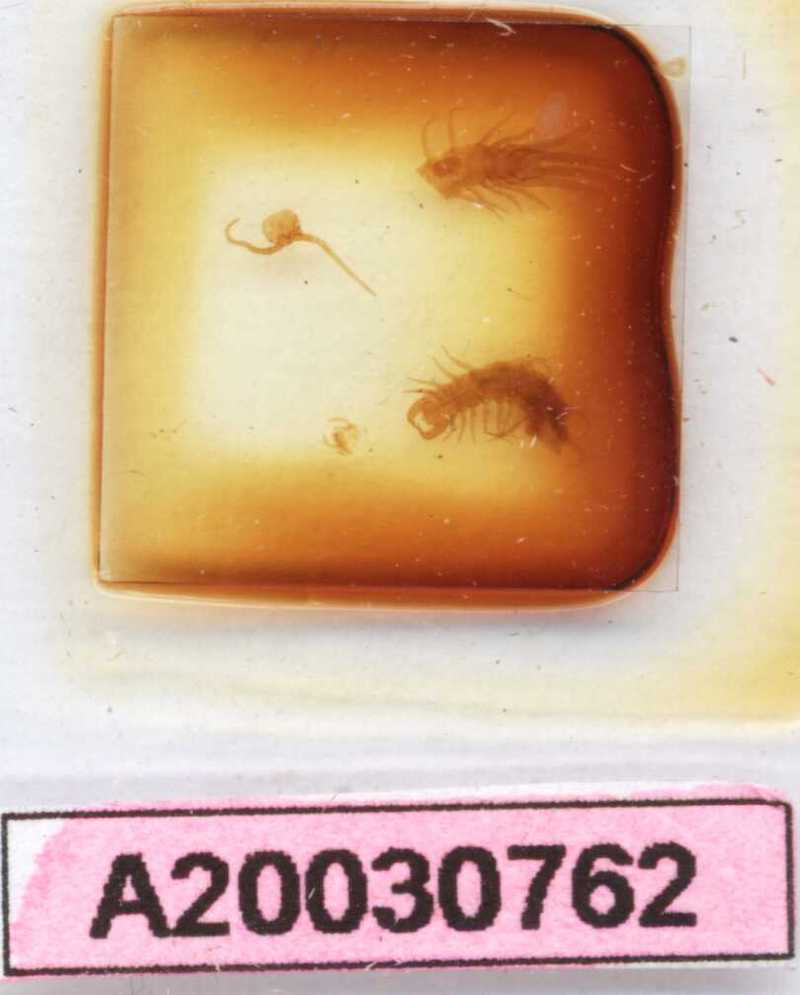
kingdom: Animalia
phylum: Arthropoda
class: Chilopoda
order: Lithobiomorpha
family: Lithobiidae
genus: Lithobius
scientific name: Lithobius micropodus
